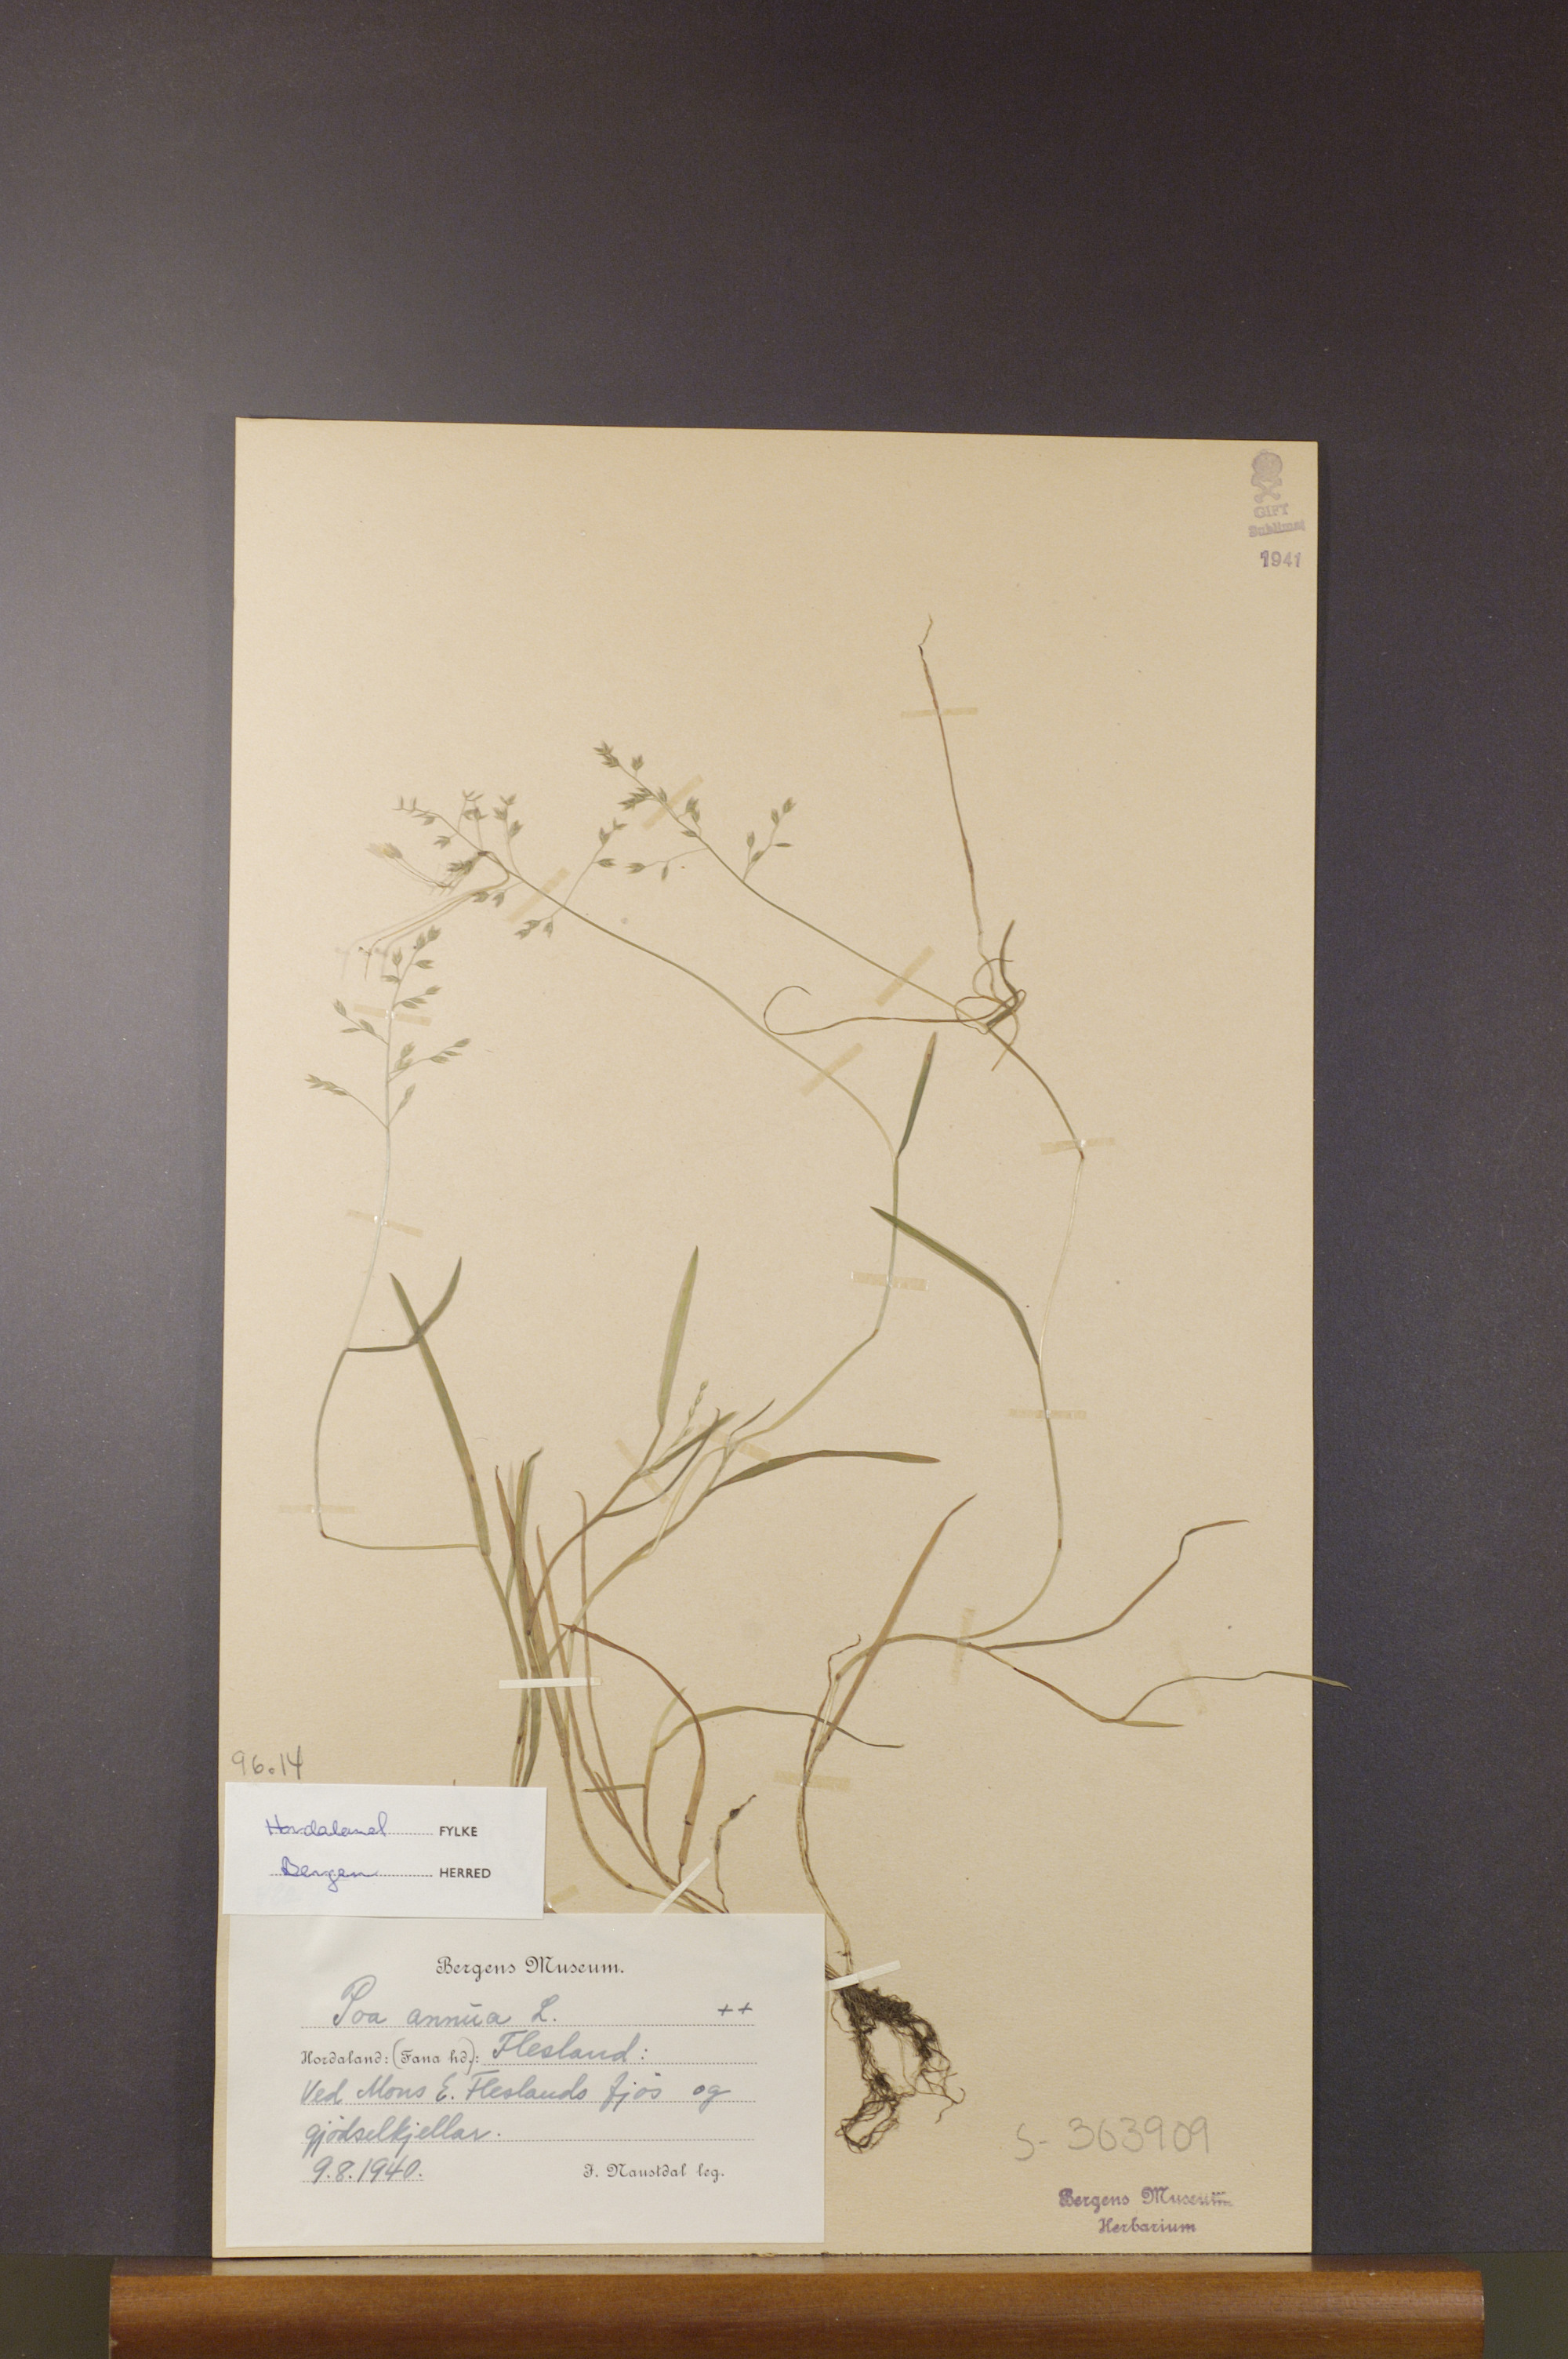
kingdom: Plantae
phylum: Tracheophyta
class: Liliopsida
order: Poales
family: Poaceae
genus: Poa
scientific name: Poa annua
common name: Annual bluegrass
